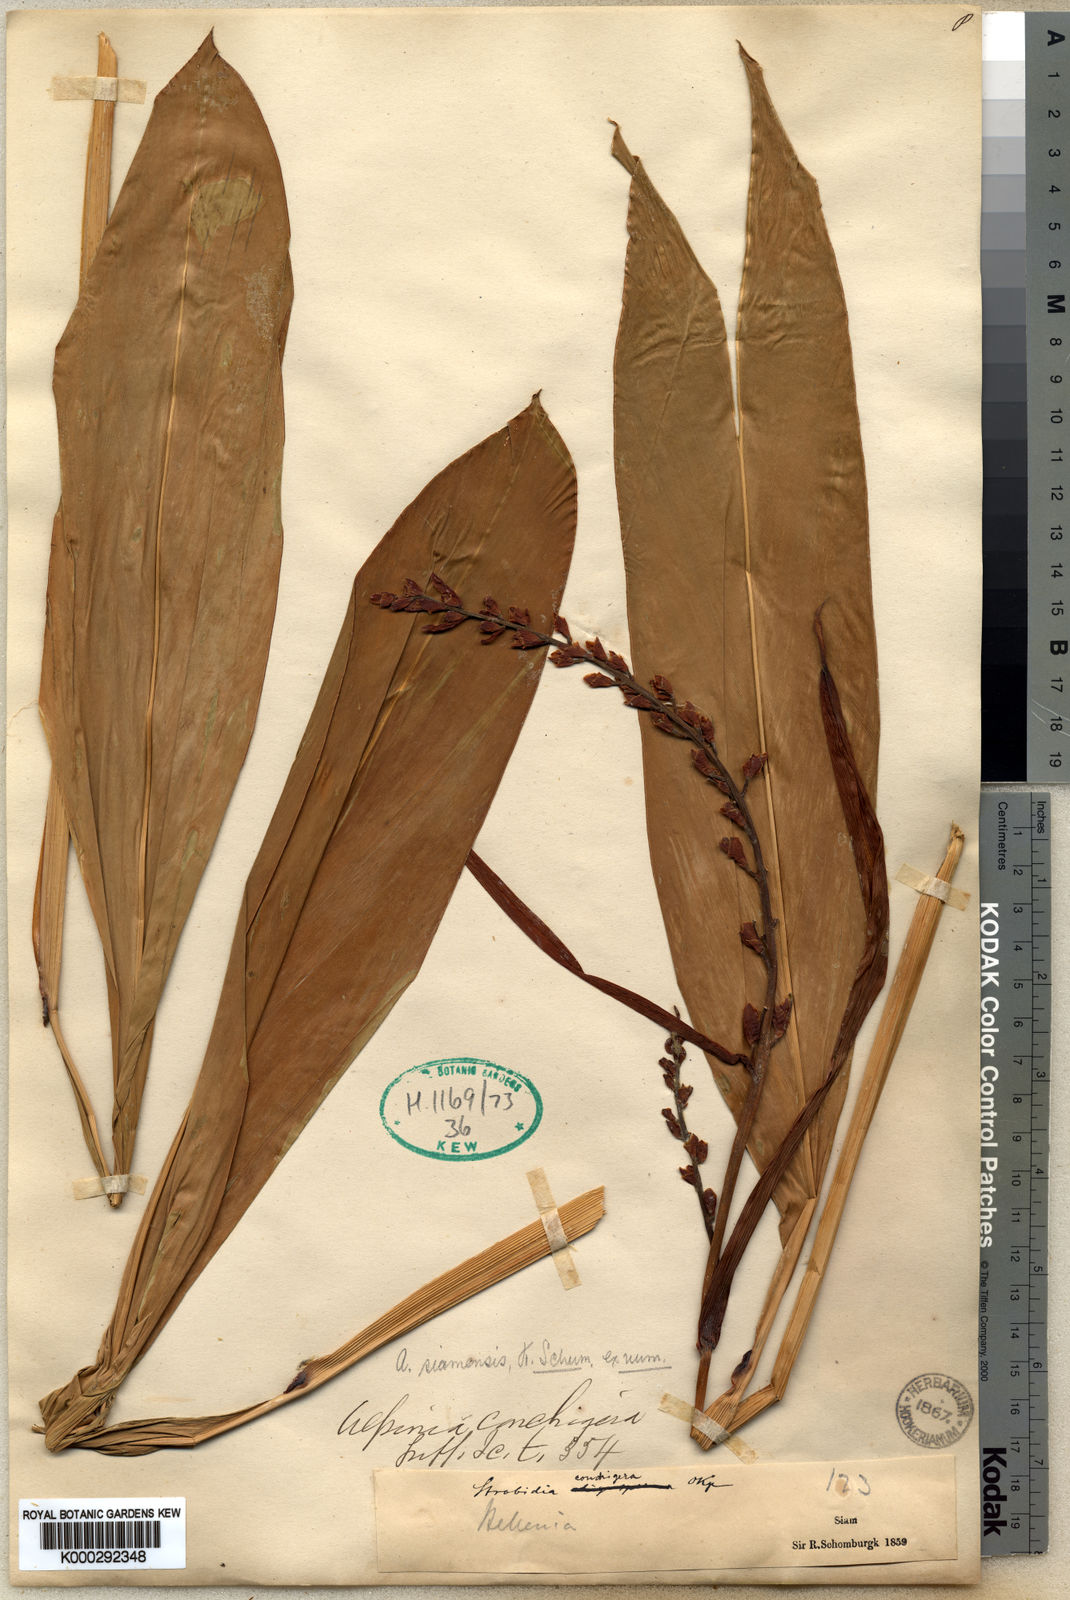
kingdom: Plantae
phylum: Tracheophyta
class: Liliopsida
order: Zingiberales
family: Zingiberaceae
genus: Alpinia
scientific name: Alpinia siamensis
